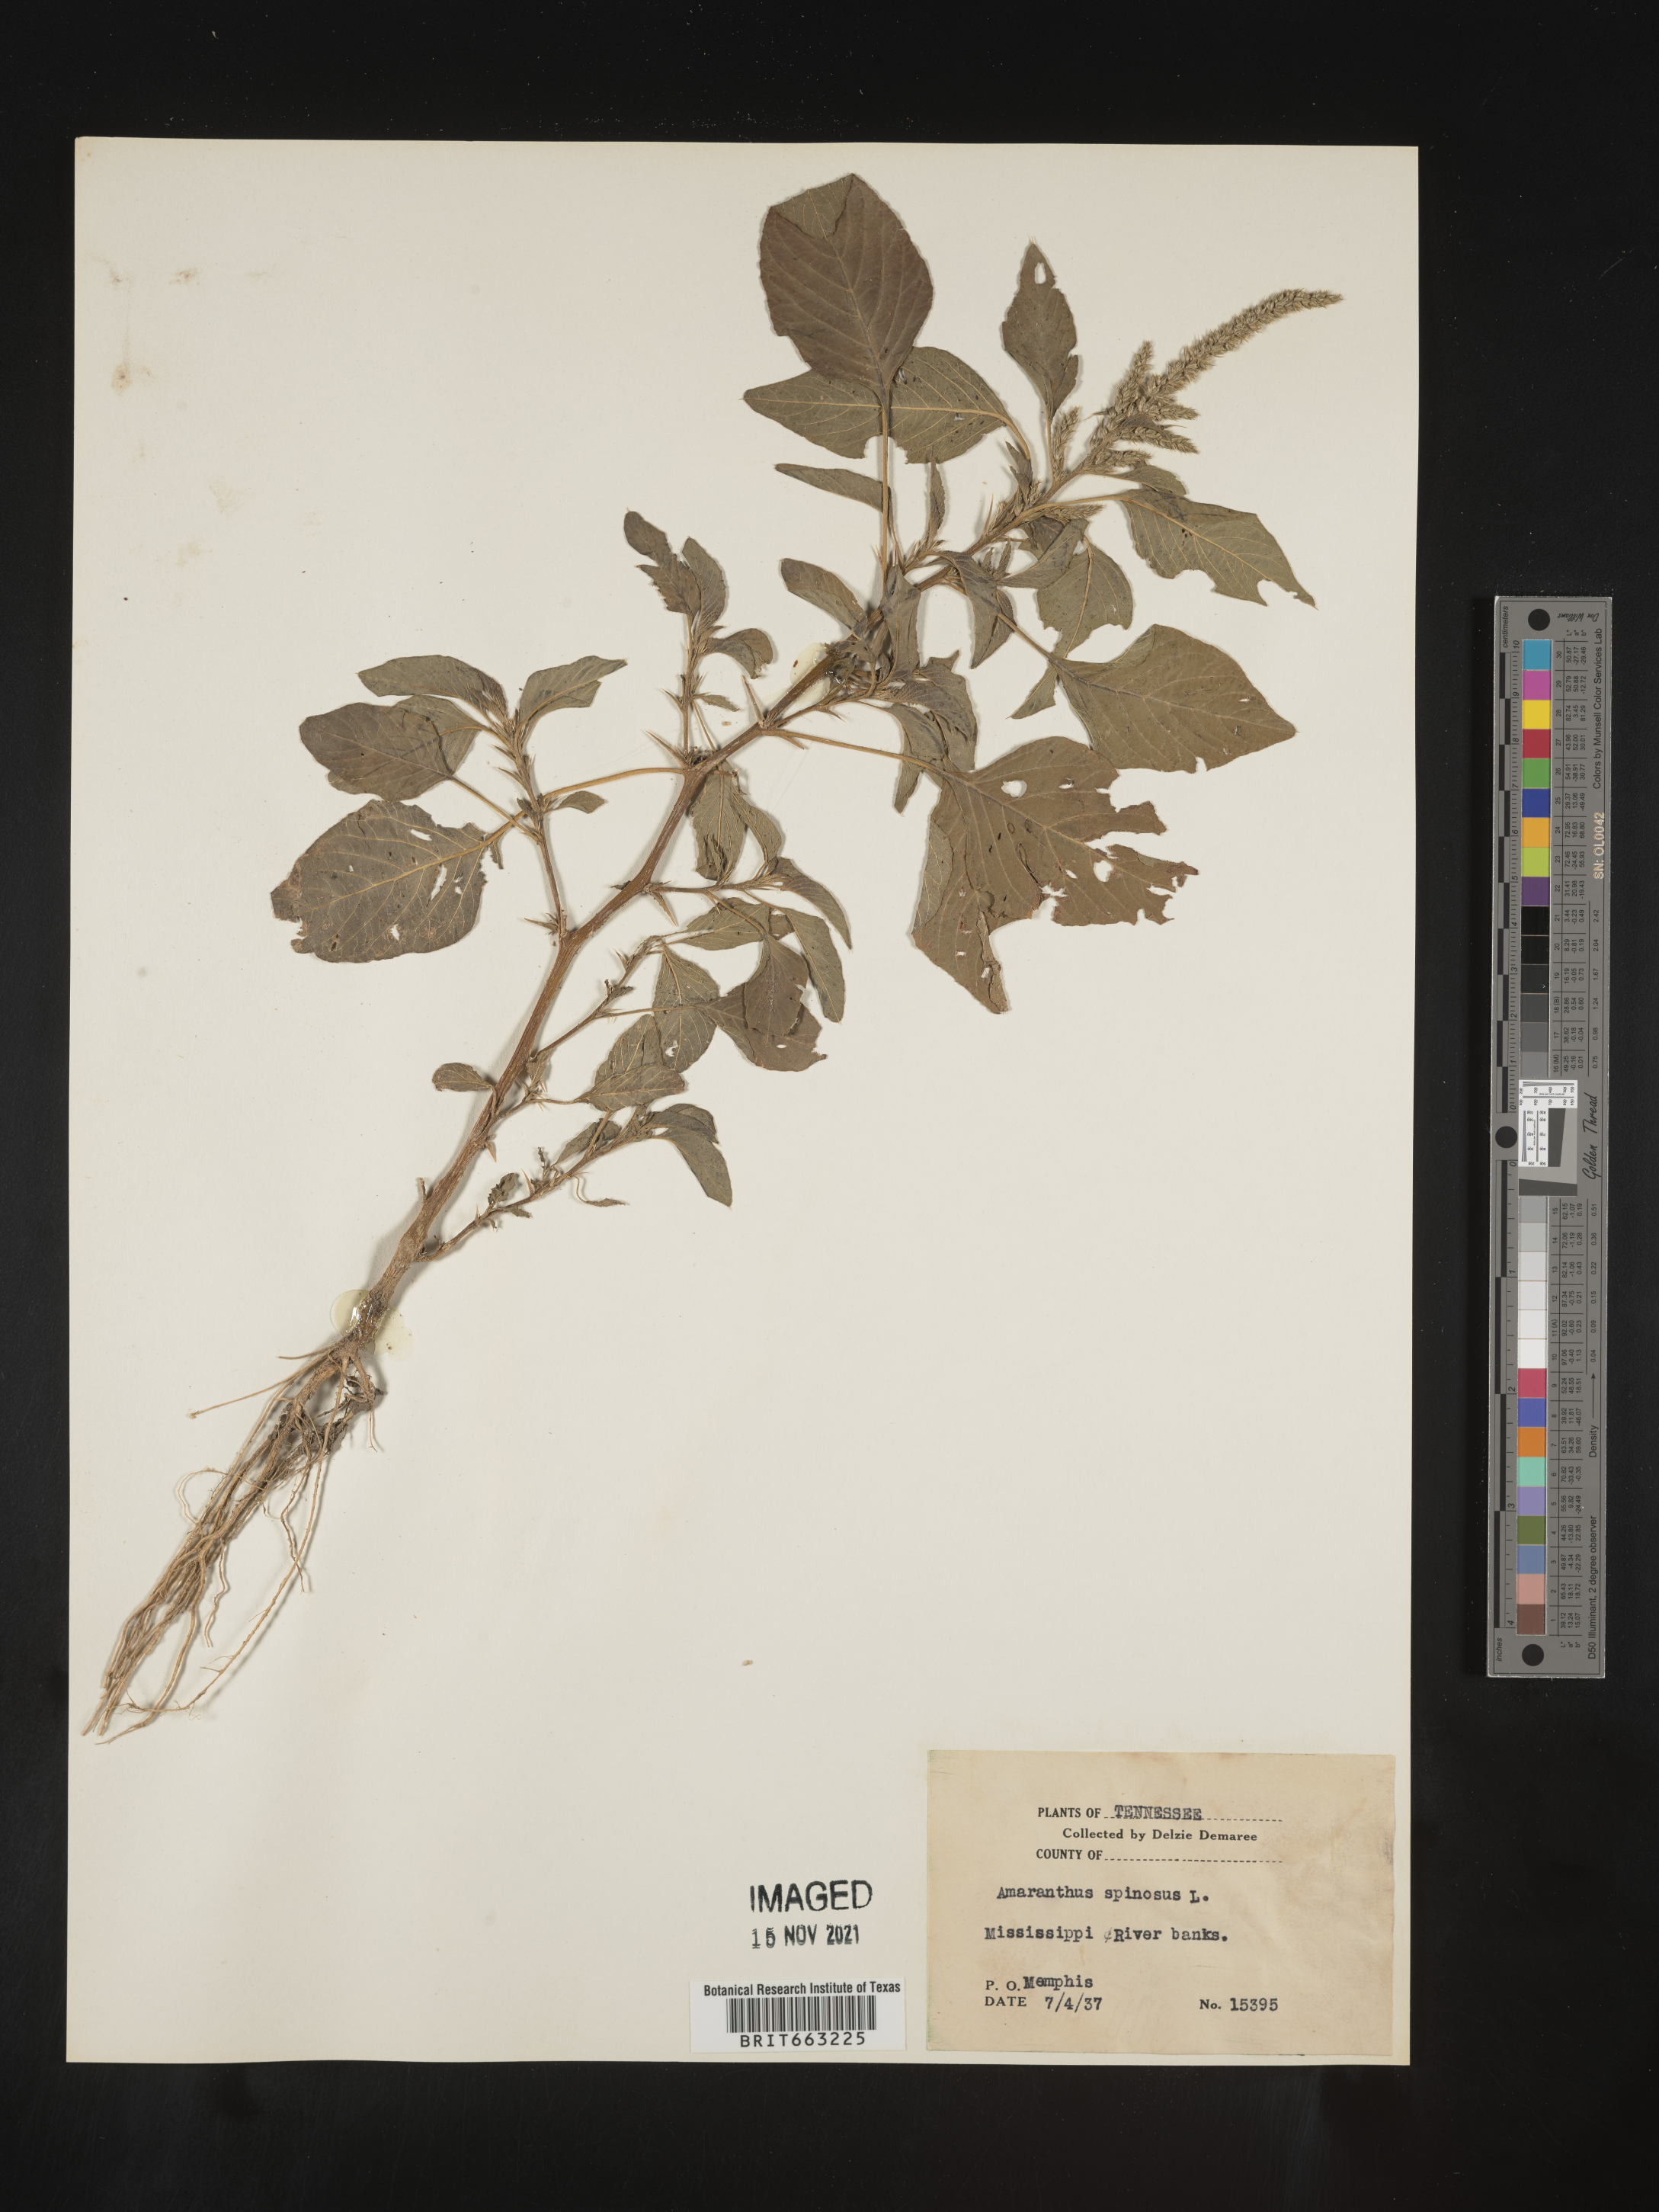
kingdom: Plantae
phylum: Tracheophyta
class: Magnoliopsida
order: Caryophyllales
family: Amaranthaceae
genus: Amaranthus
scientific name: Amaranthus spinosus
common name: Spiny amaranth
